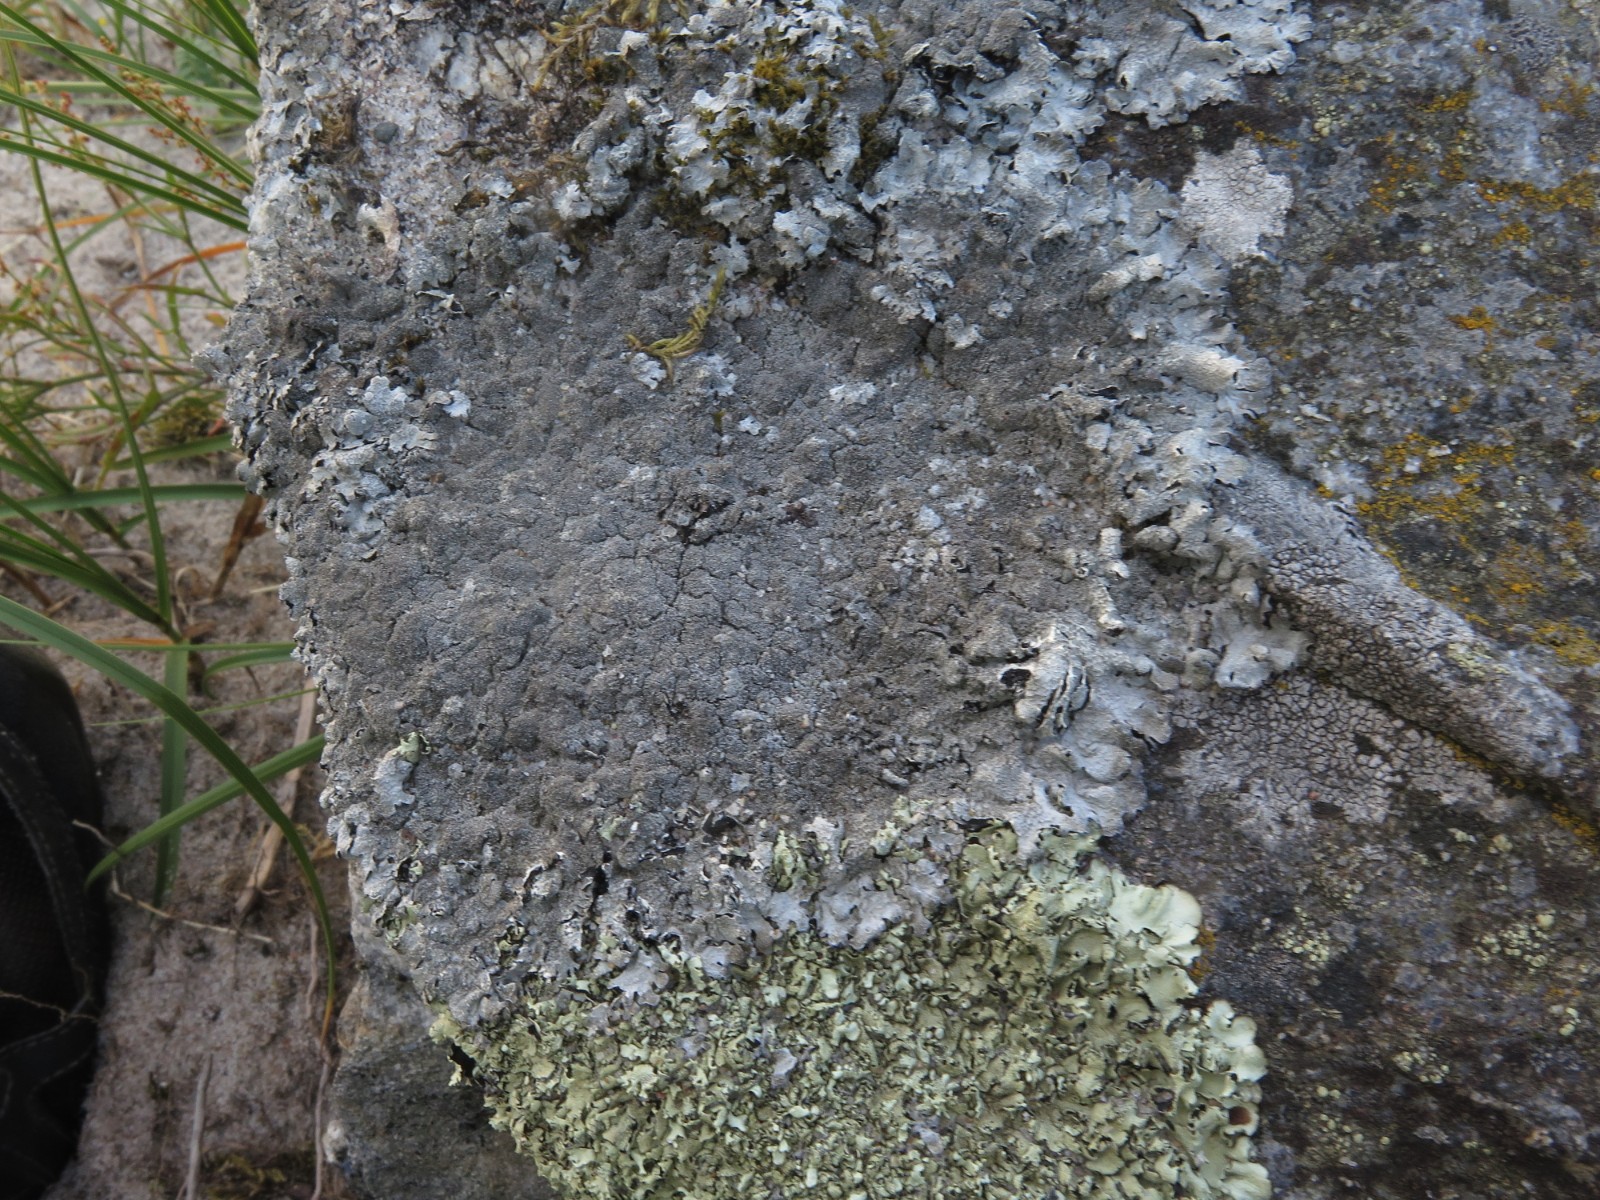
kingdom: Fungi
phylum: Ascomycota
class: Lecanoromycetes
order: Lecanorales
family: Parmeliaceae
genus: Parmelia
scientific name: Parmelia saxatilis
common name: farve-skållav
